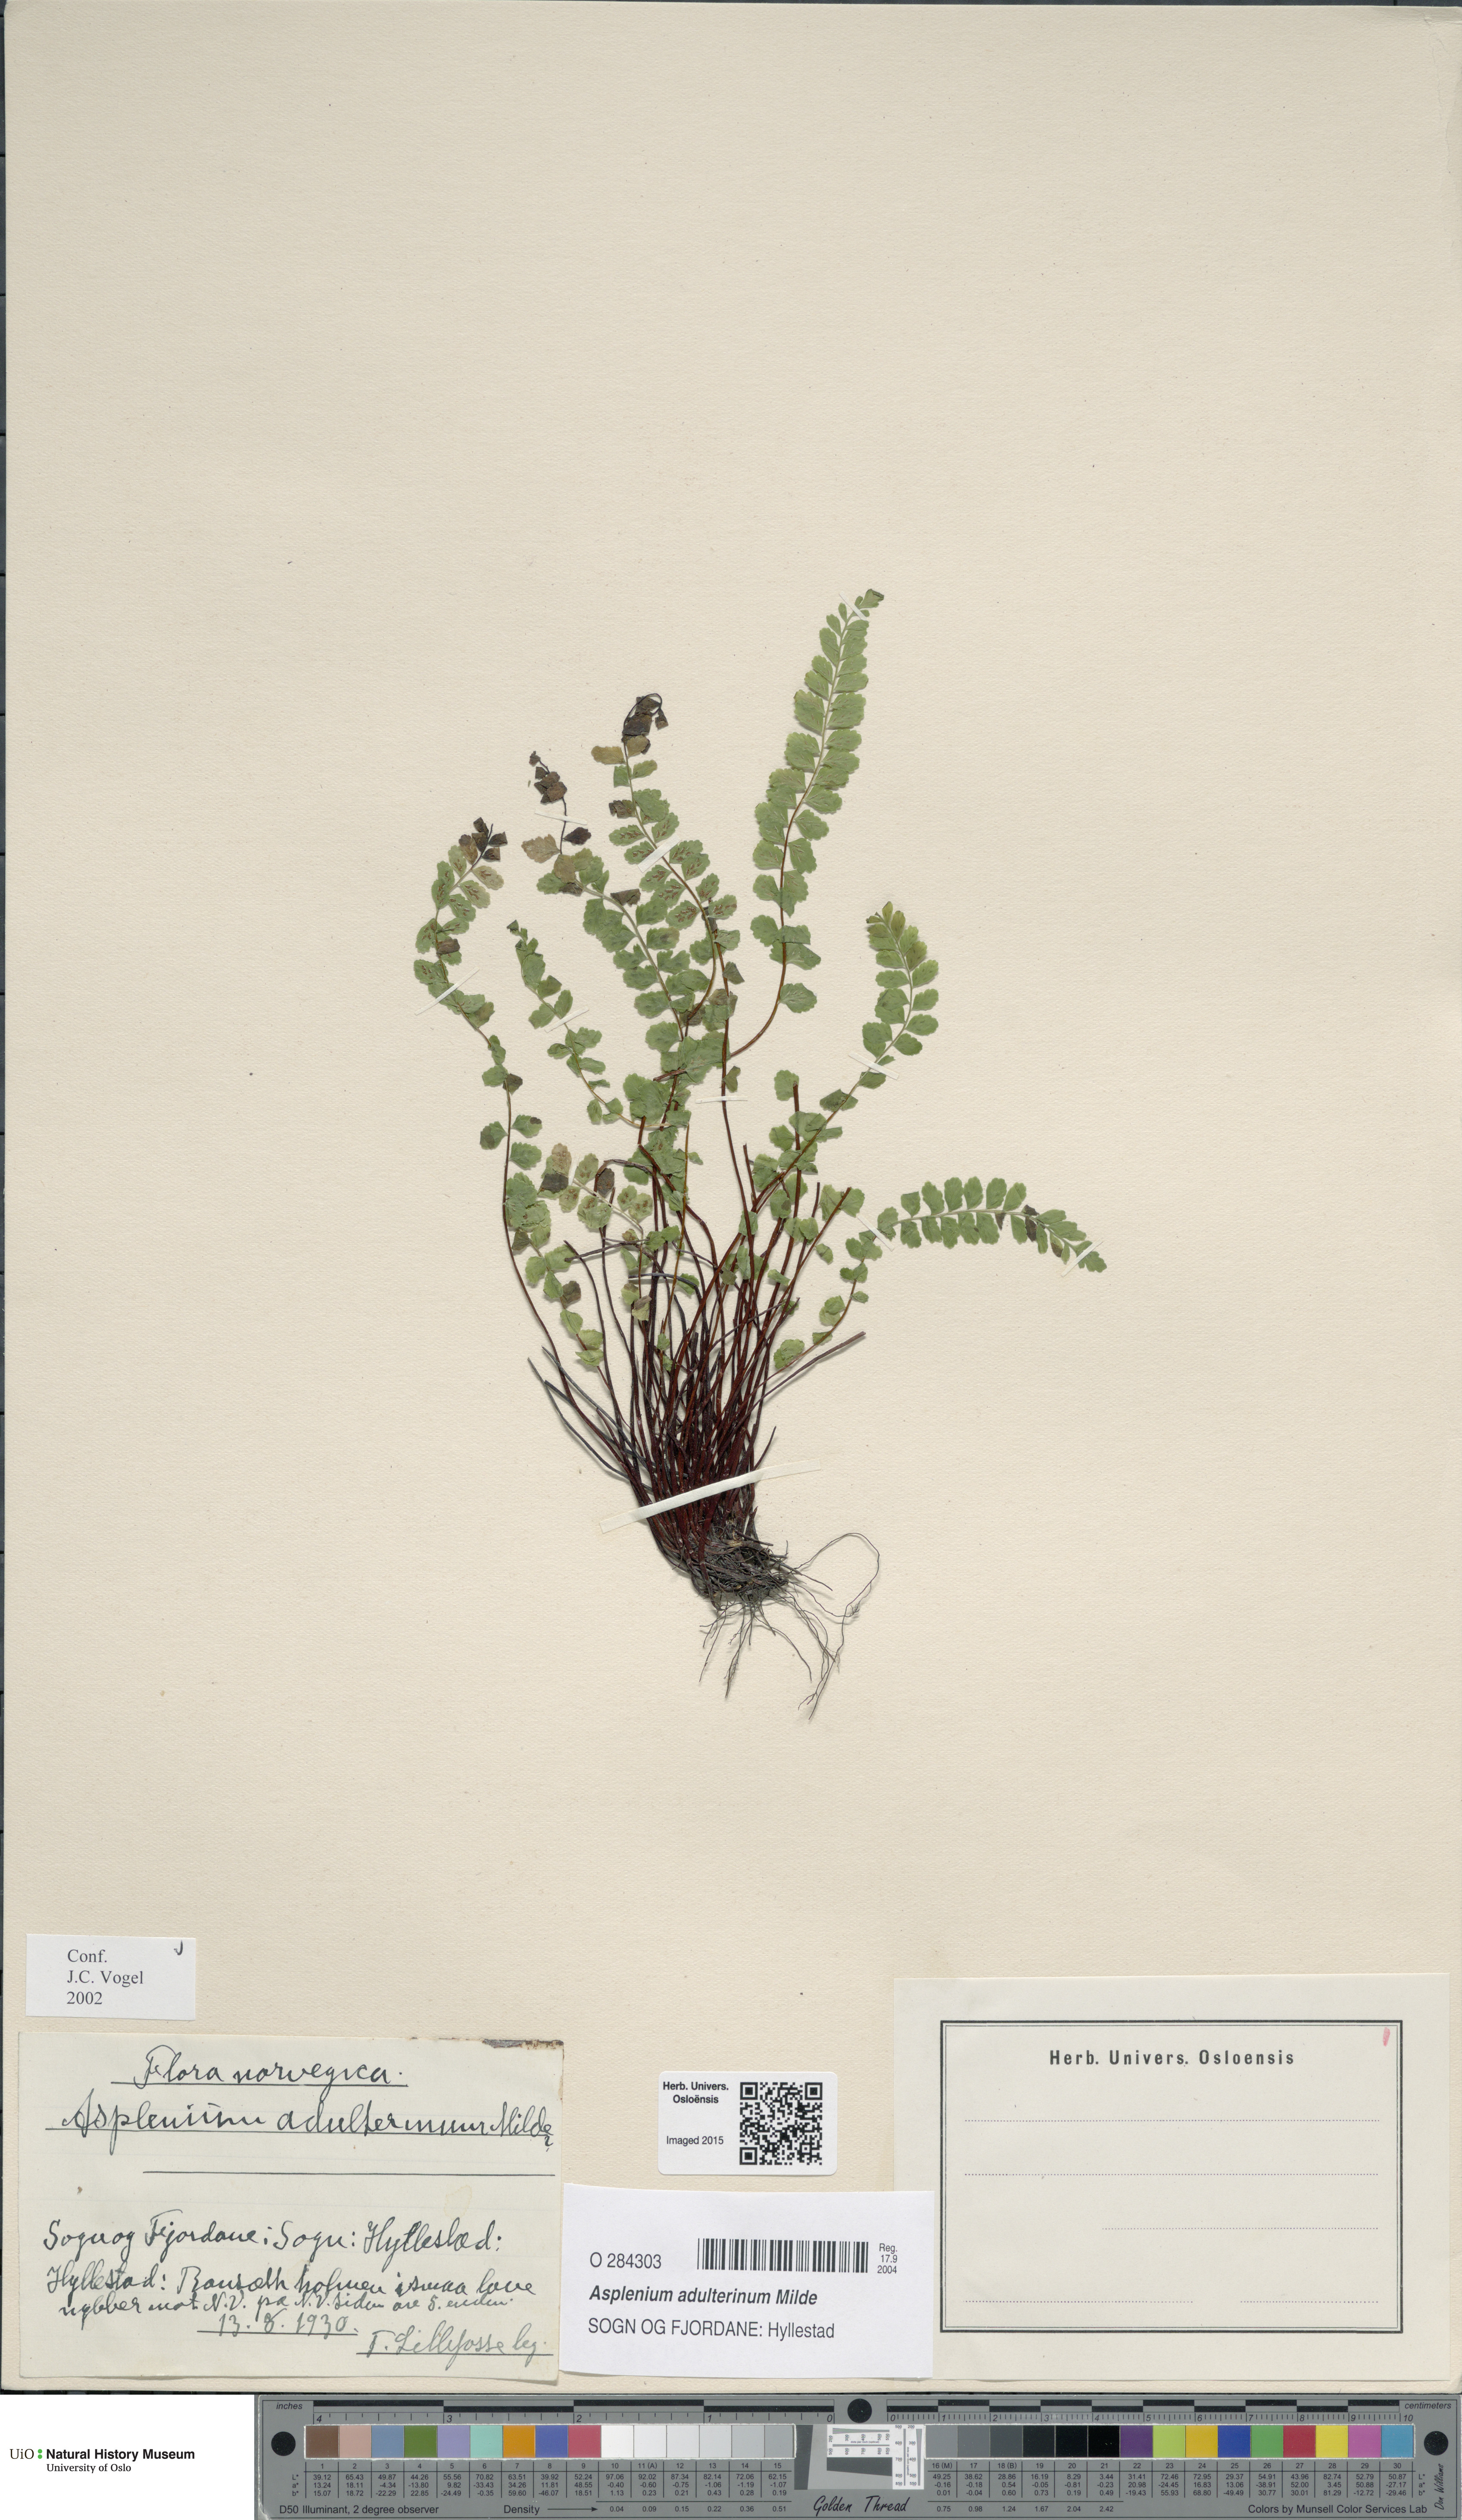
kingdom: Plantae
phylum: Tracheophyta
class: Polypodiopsida
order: Polypodiales
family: Aspleniaceae
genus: Asplenium
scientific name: Asplenium adulterinum
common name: Adulterated spleenwort
